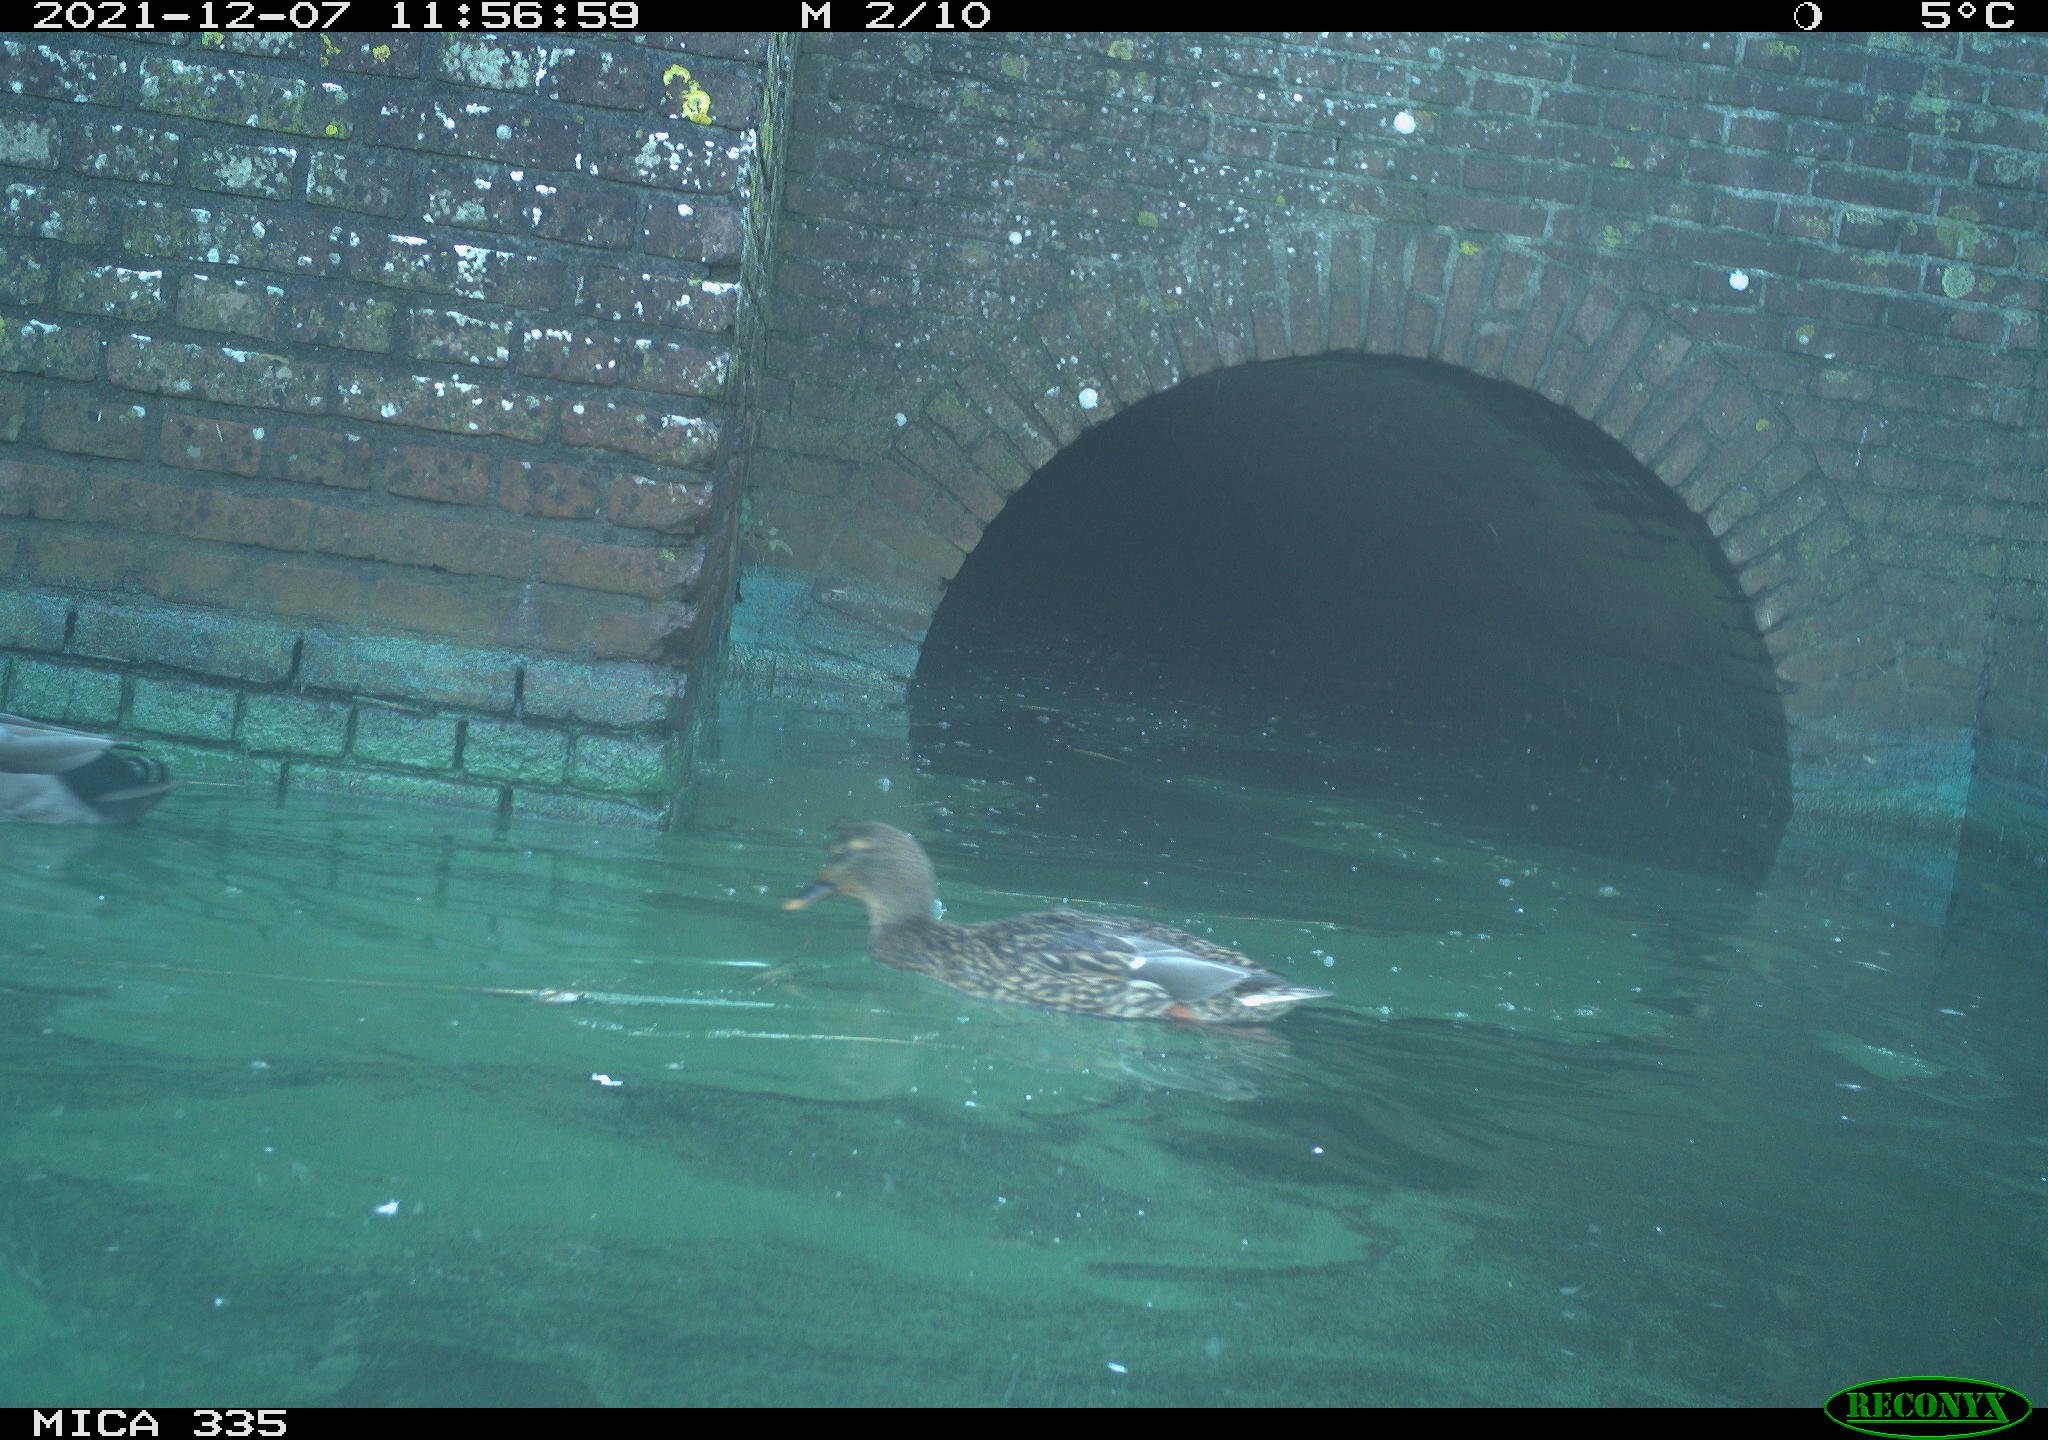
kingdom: Animalia
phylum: Chordata
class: Aves
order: Anseriformes
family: Anatidae
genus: Anas
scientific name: Anas platyrhynchos
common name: Mallard
